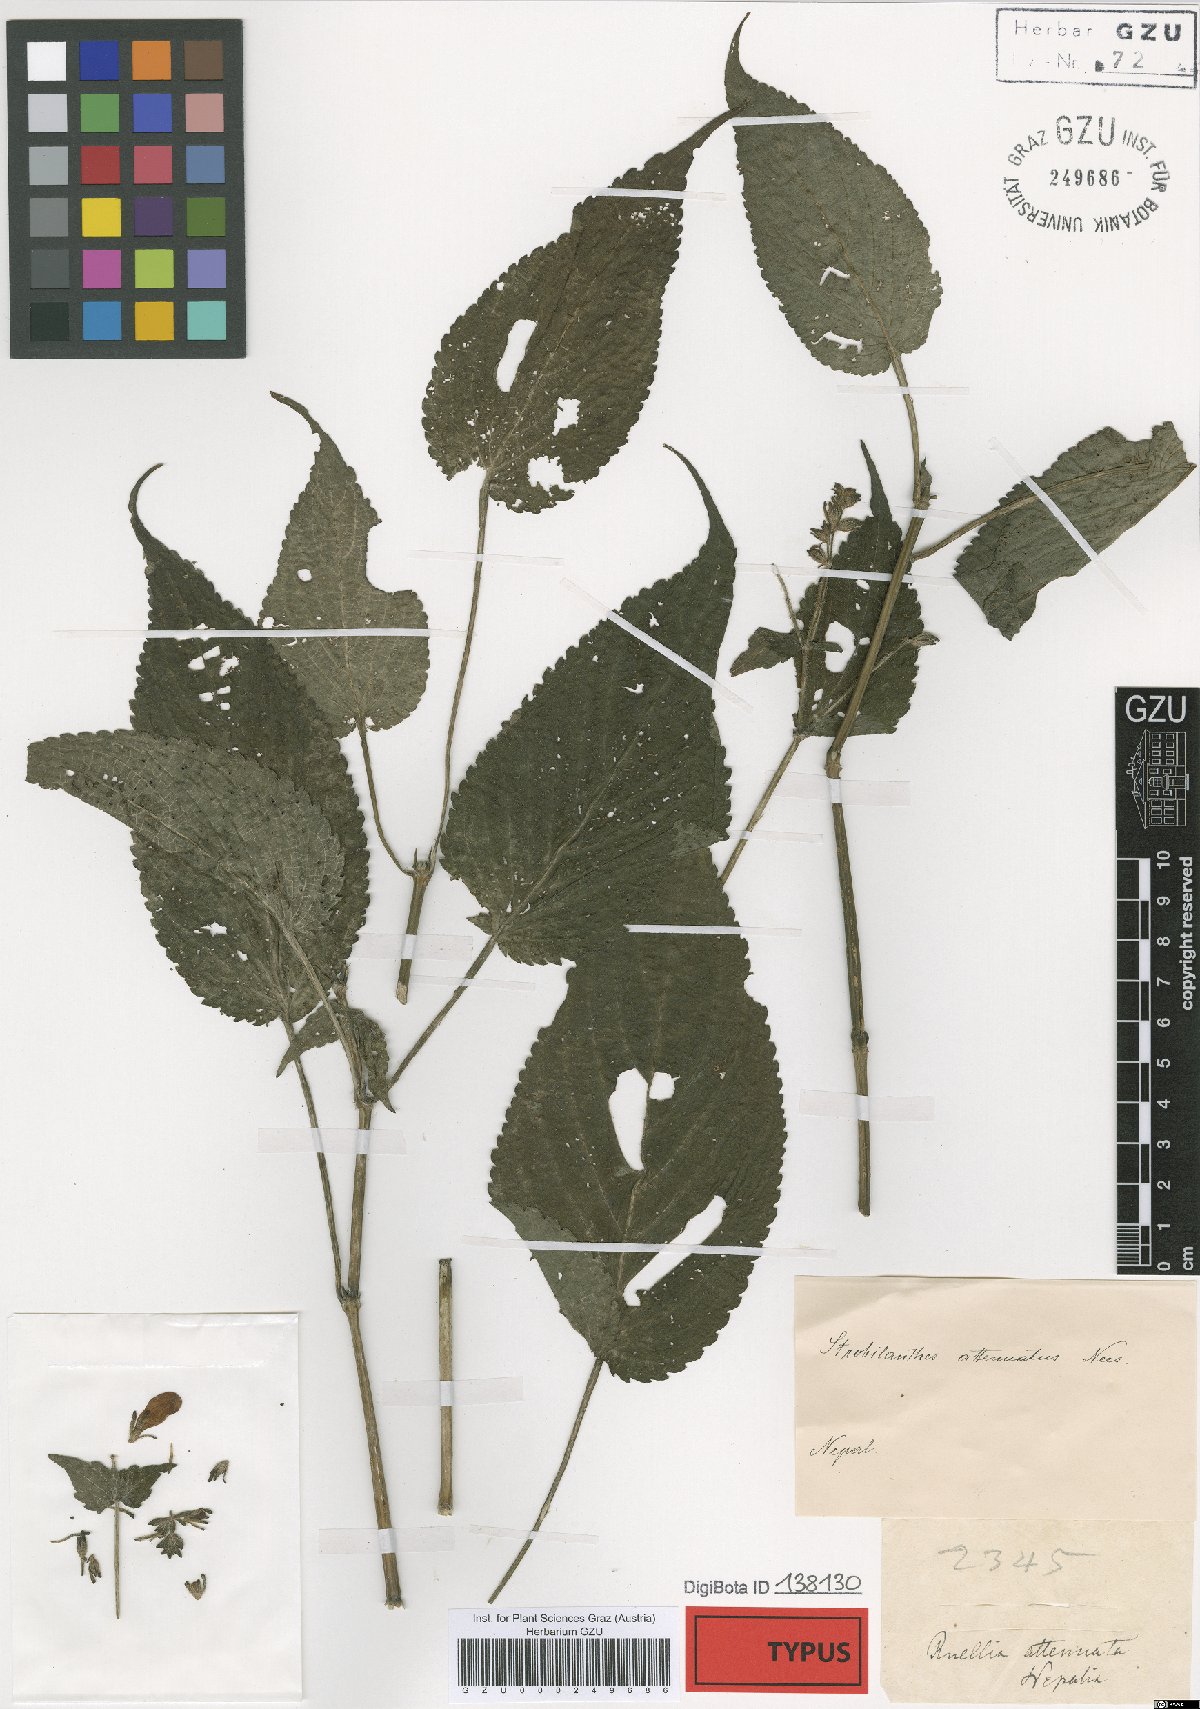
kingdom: Plantae
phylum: Tracheophyta
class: Magnoliopsida
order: Lamiales
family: Acanthaceae
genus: Strobilanthes
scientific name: Strobilanthes attenuata
